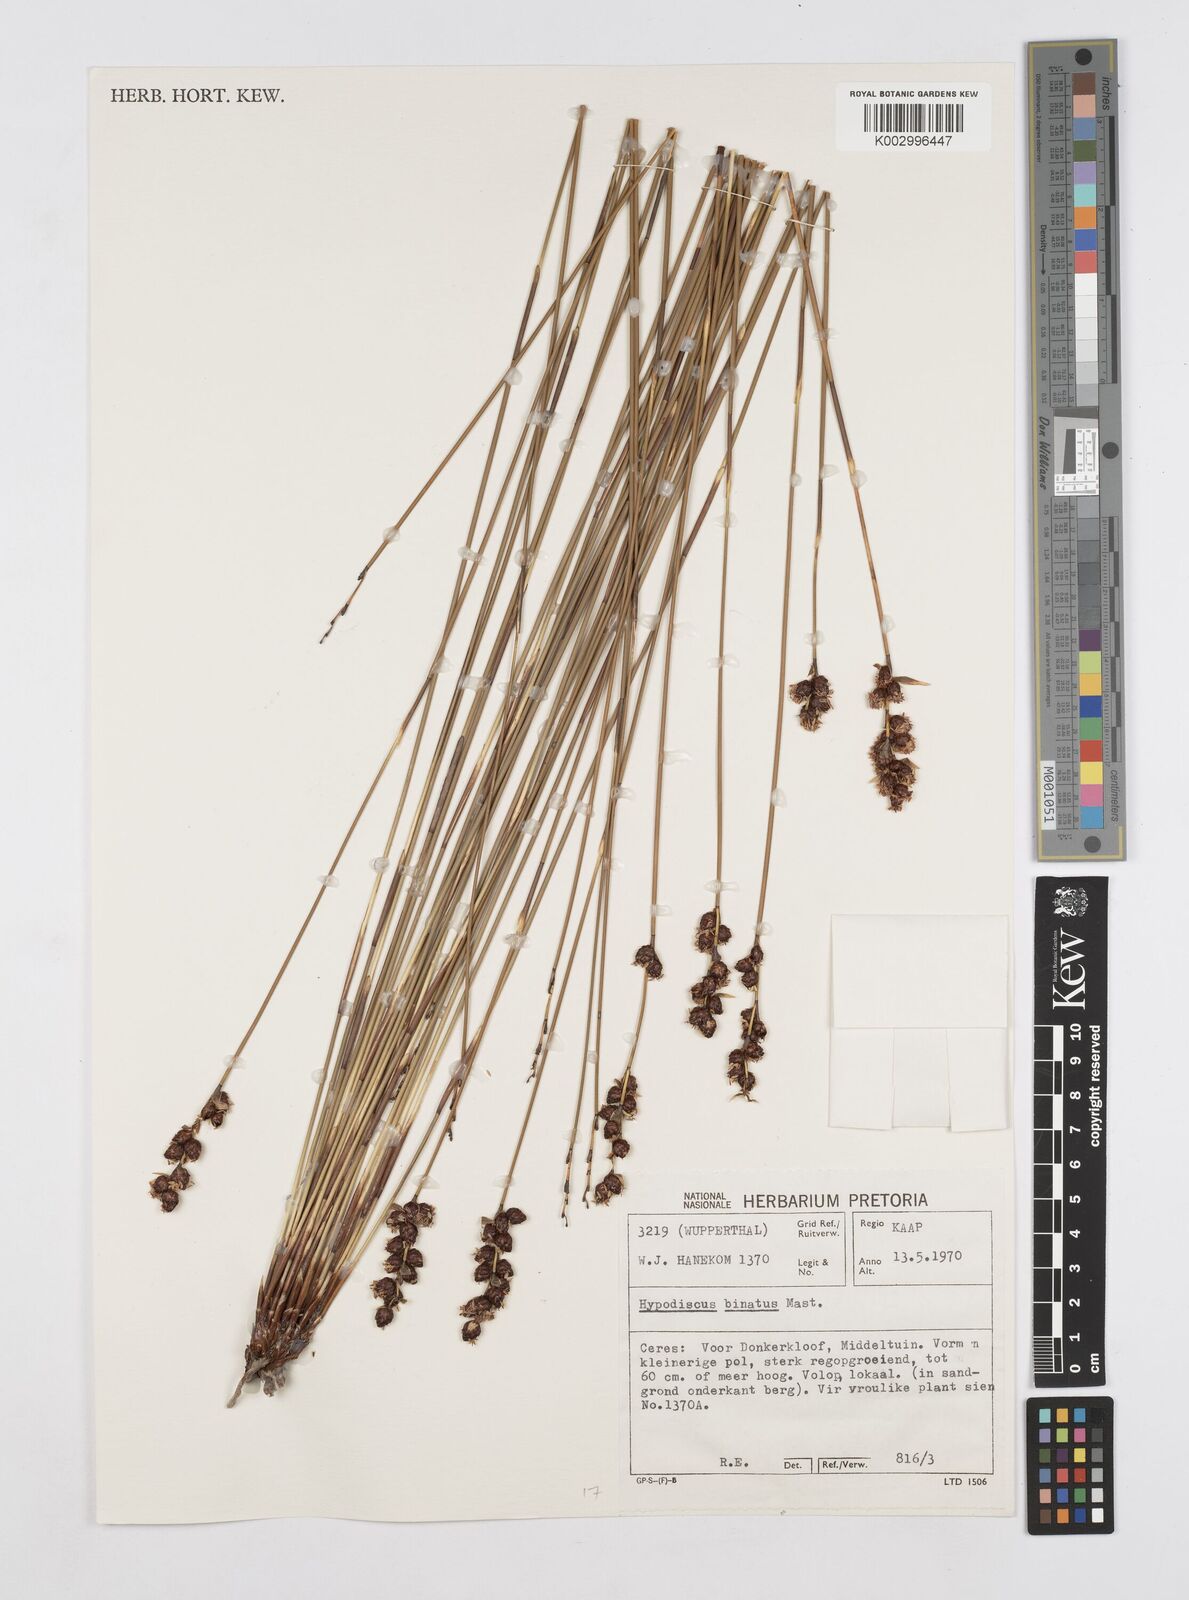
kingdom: Plantae
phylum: Tracheophyta
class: Liliopsida
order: Poales
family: Restionaceae
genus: Hypodiscus
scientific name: Hypodiscus laevigatus
